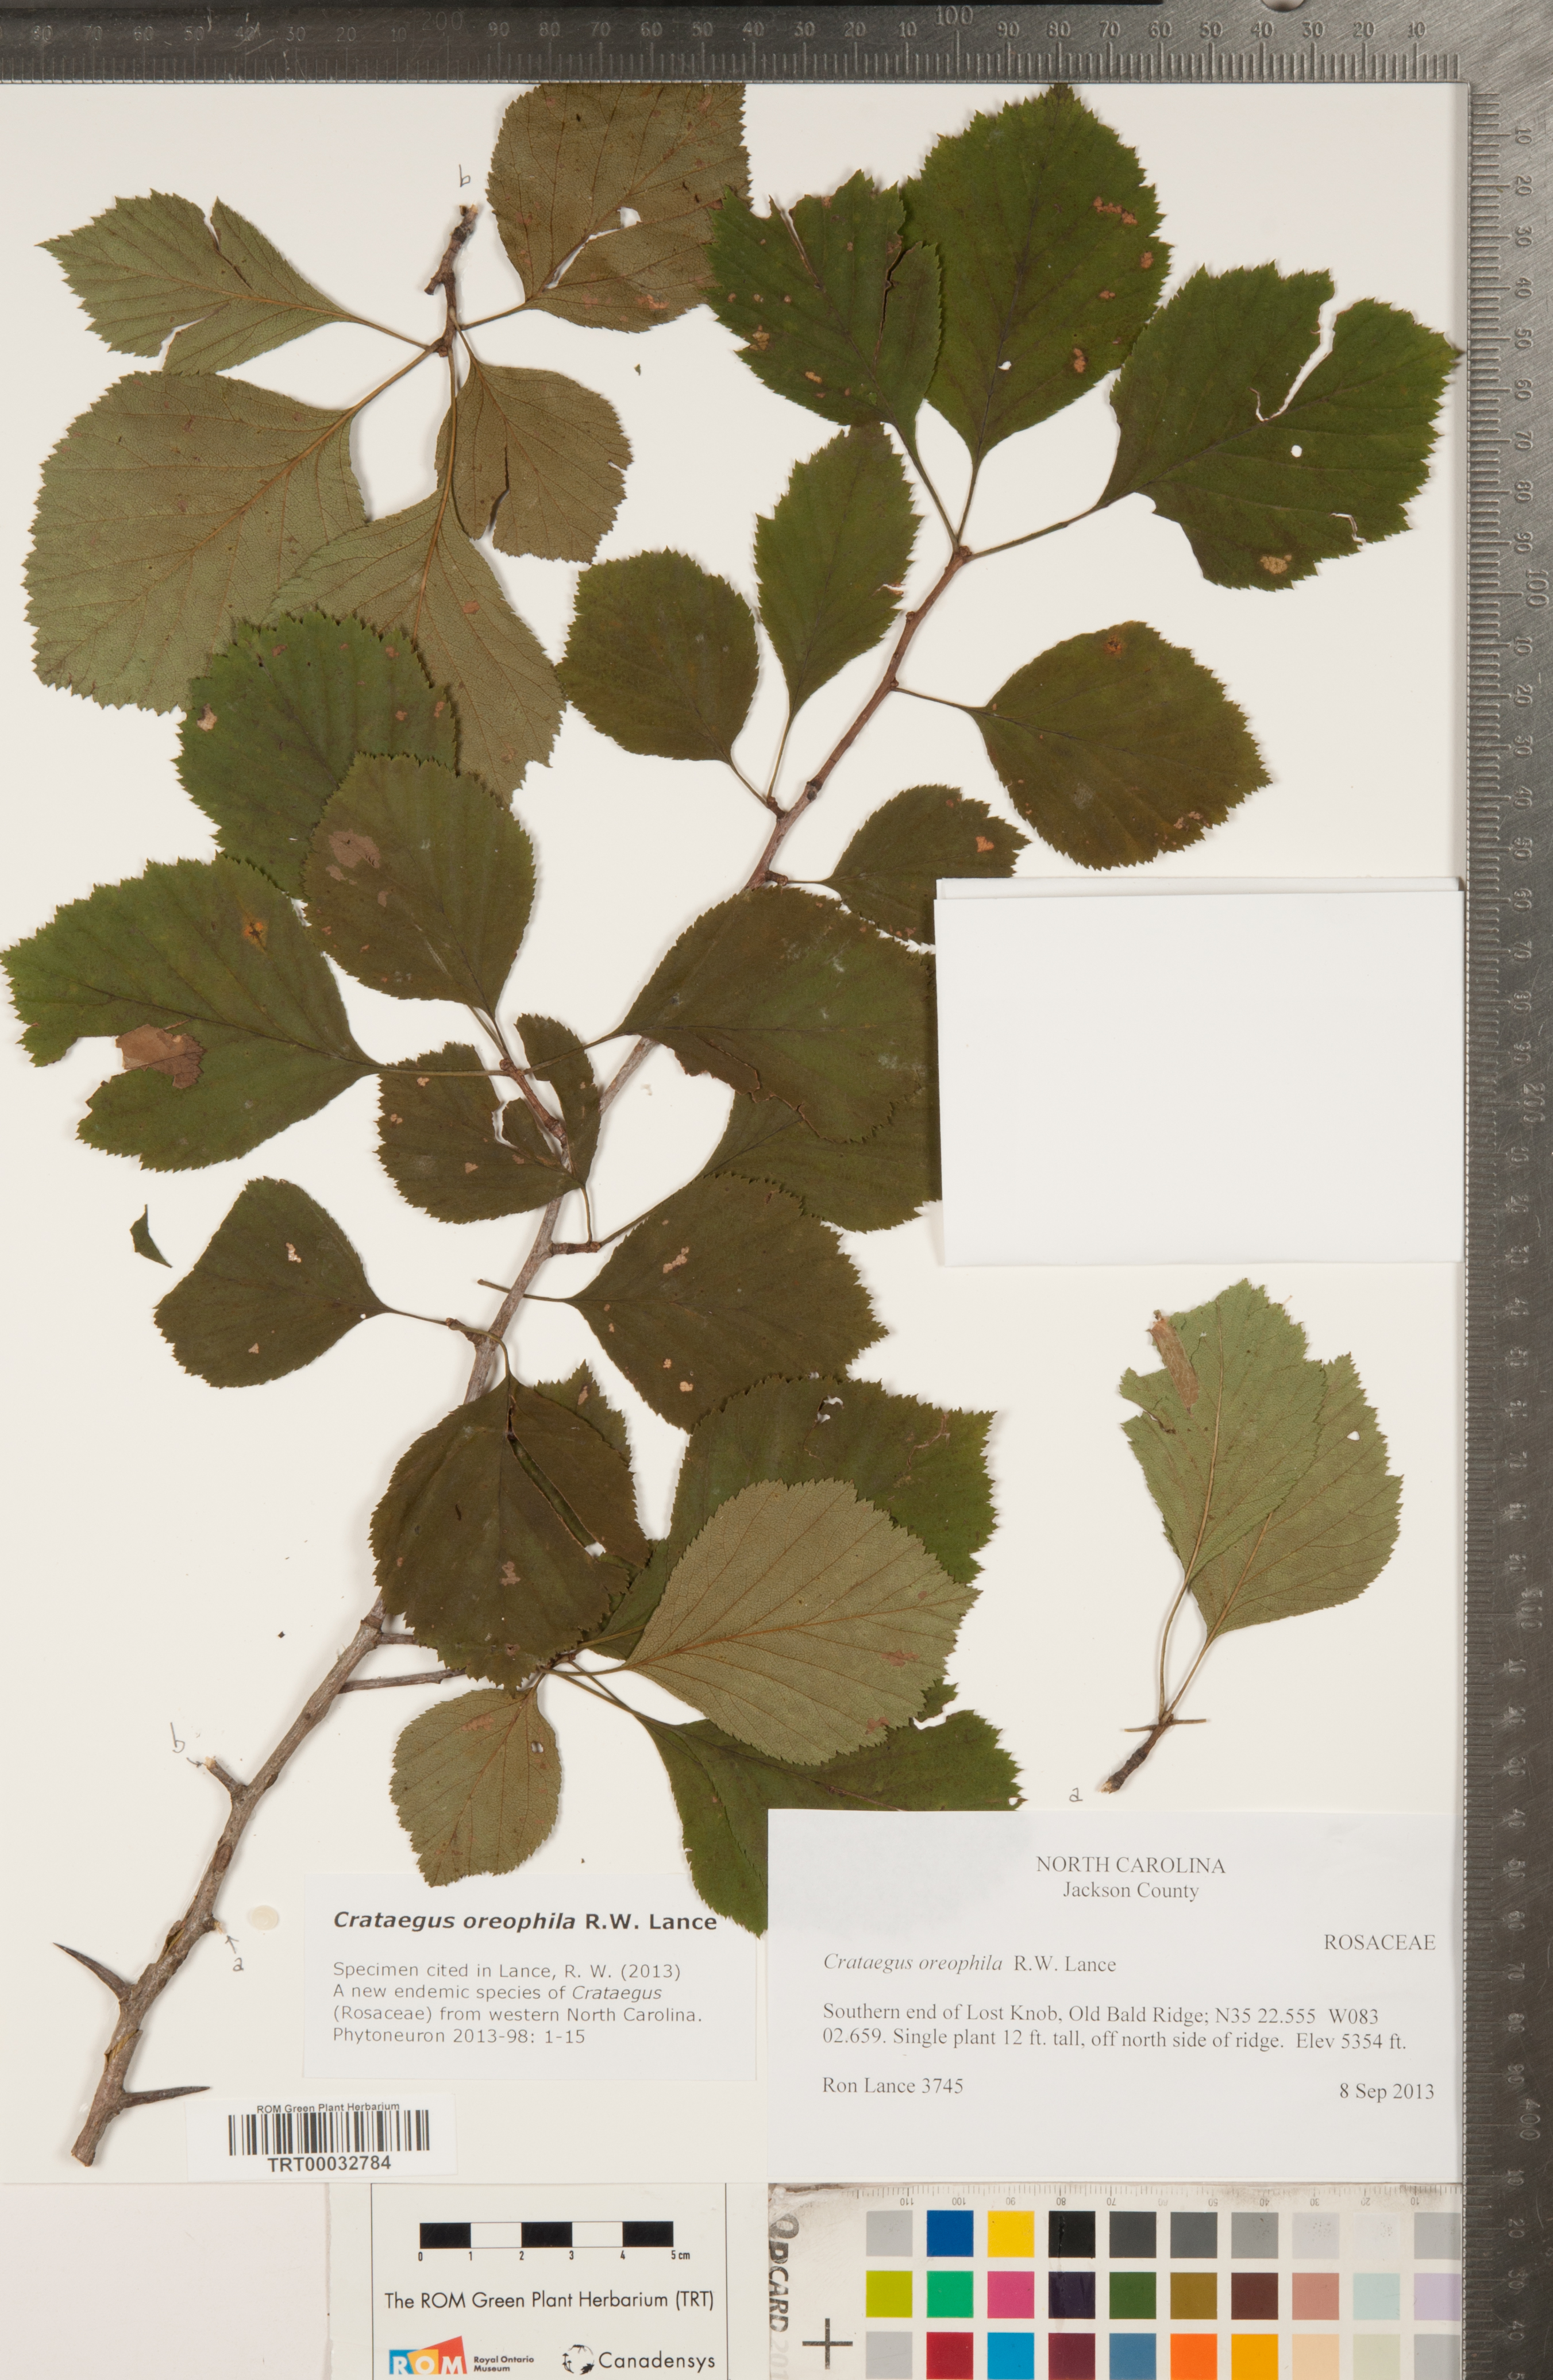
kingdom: Plantae
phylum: Tracheophyta
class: Magnoliopsida
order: Rosales
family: Rosaceae
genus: Crataegus
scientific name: Crataegus oreophila
